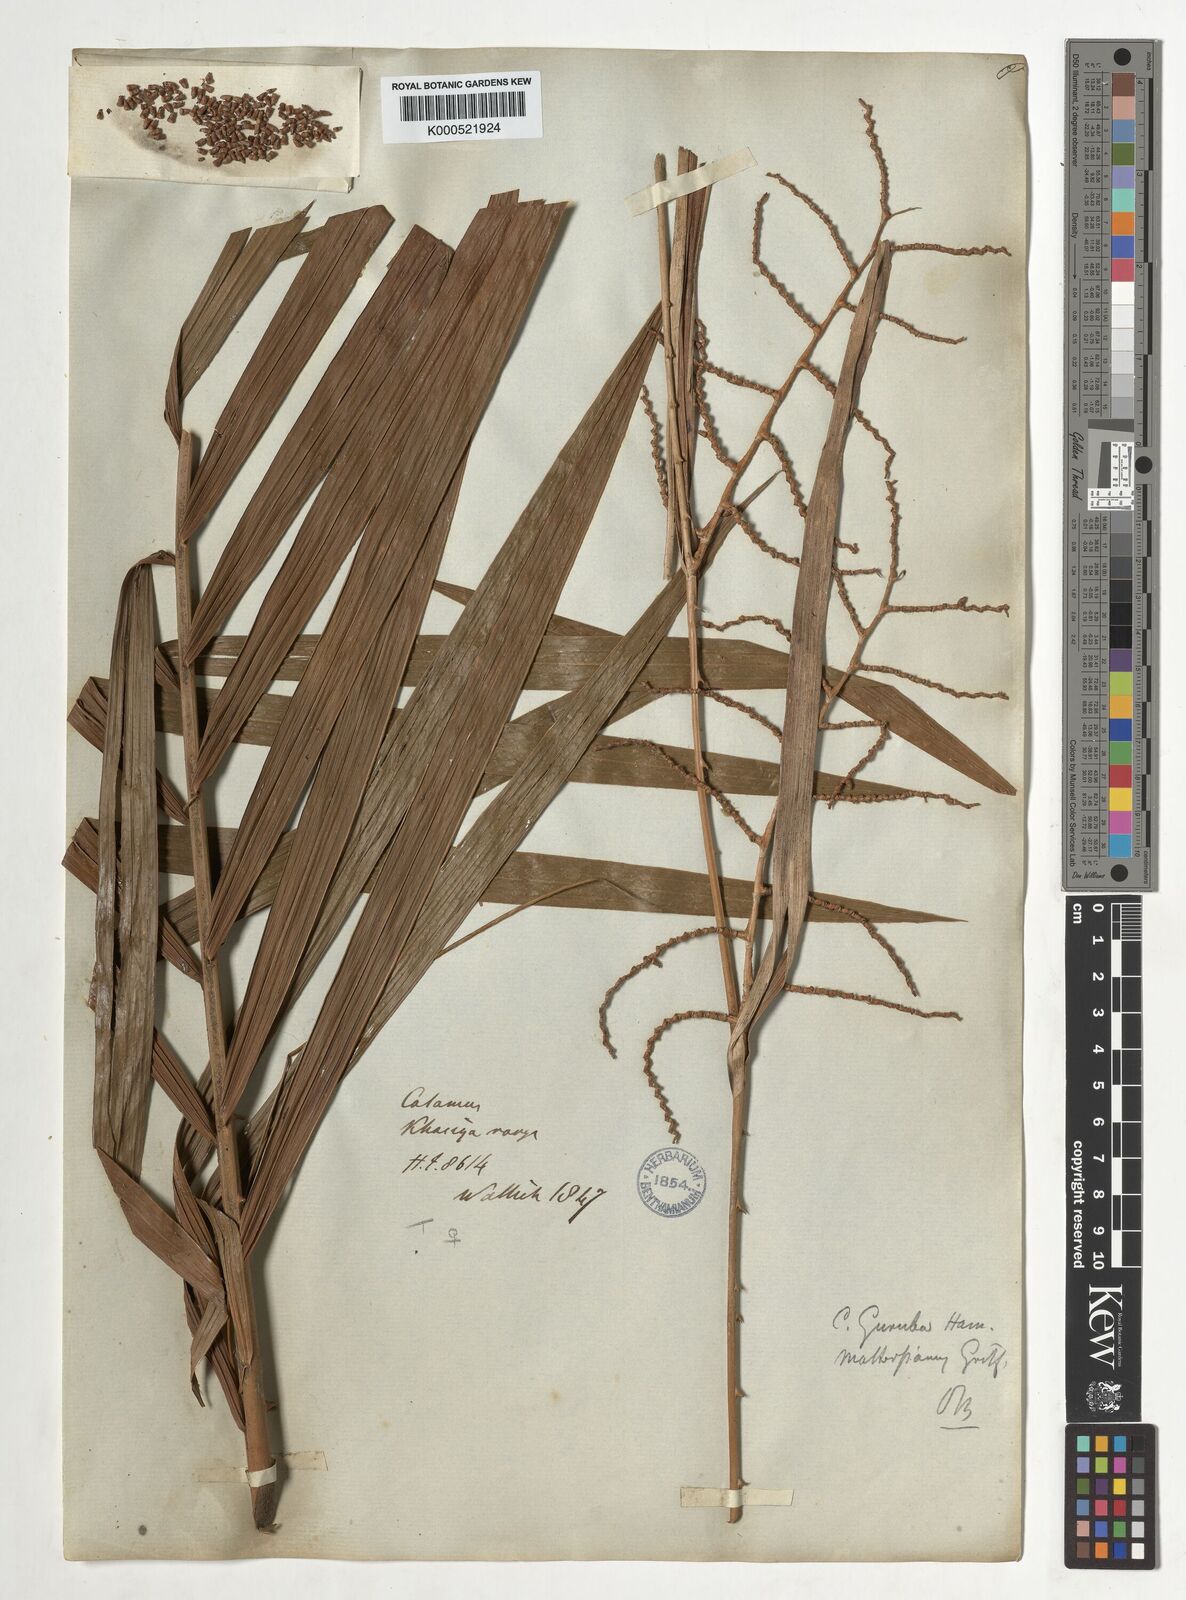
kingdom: Plantae
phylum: Tracheophyta
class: Liliopsida
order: Arecales
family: Arecaceae
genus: Calamus
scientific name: Calamus
